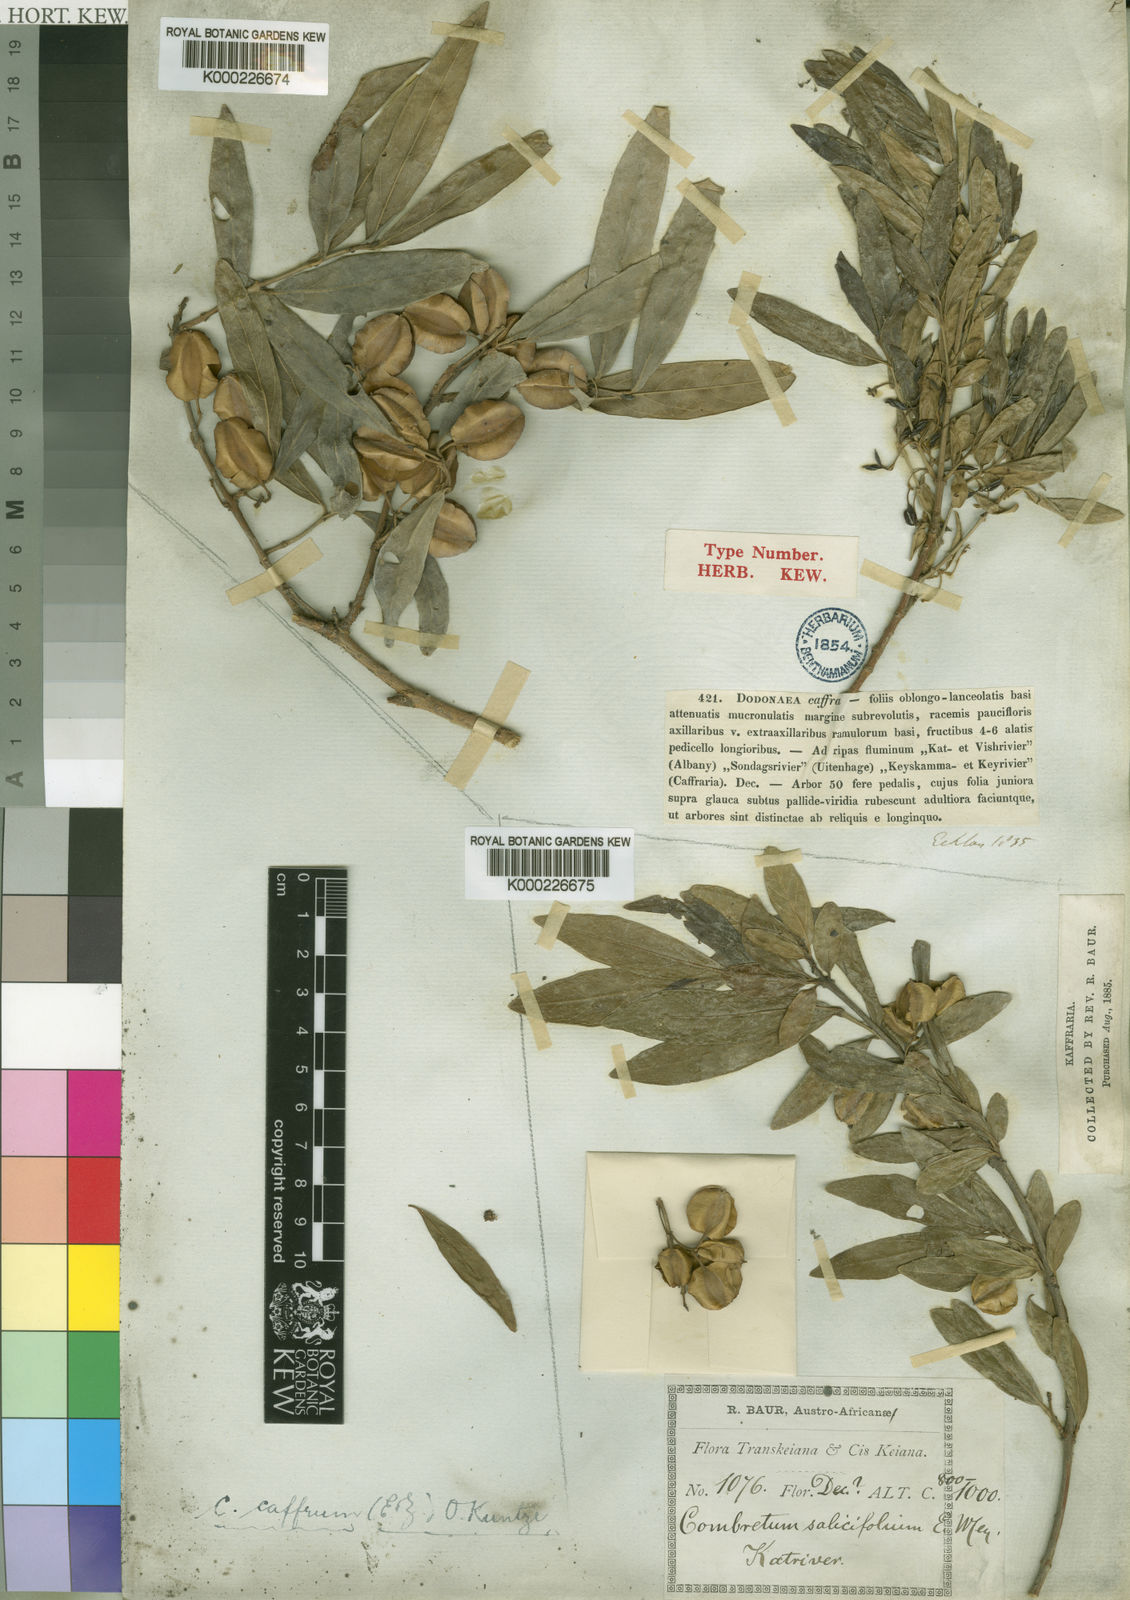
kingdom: Plantae
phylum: Tracheophyta
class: Magnoliopsida
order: Myrtales
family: Combretaceae
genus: Combretum
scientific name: Combretum caffrum
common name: Cape bushwillow
